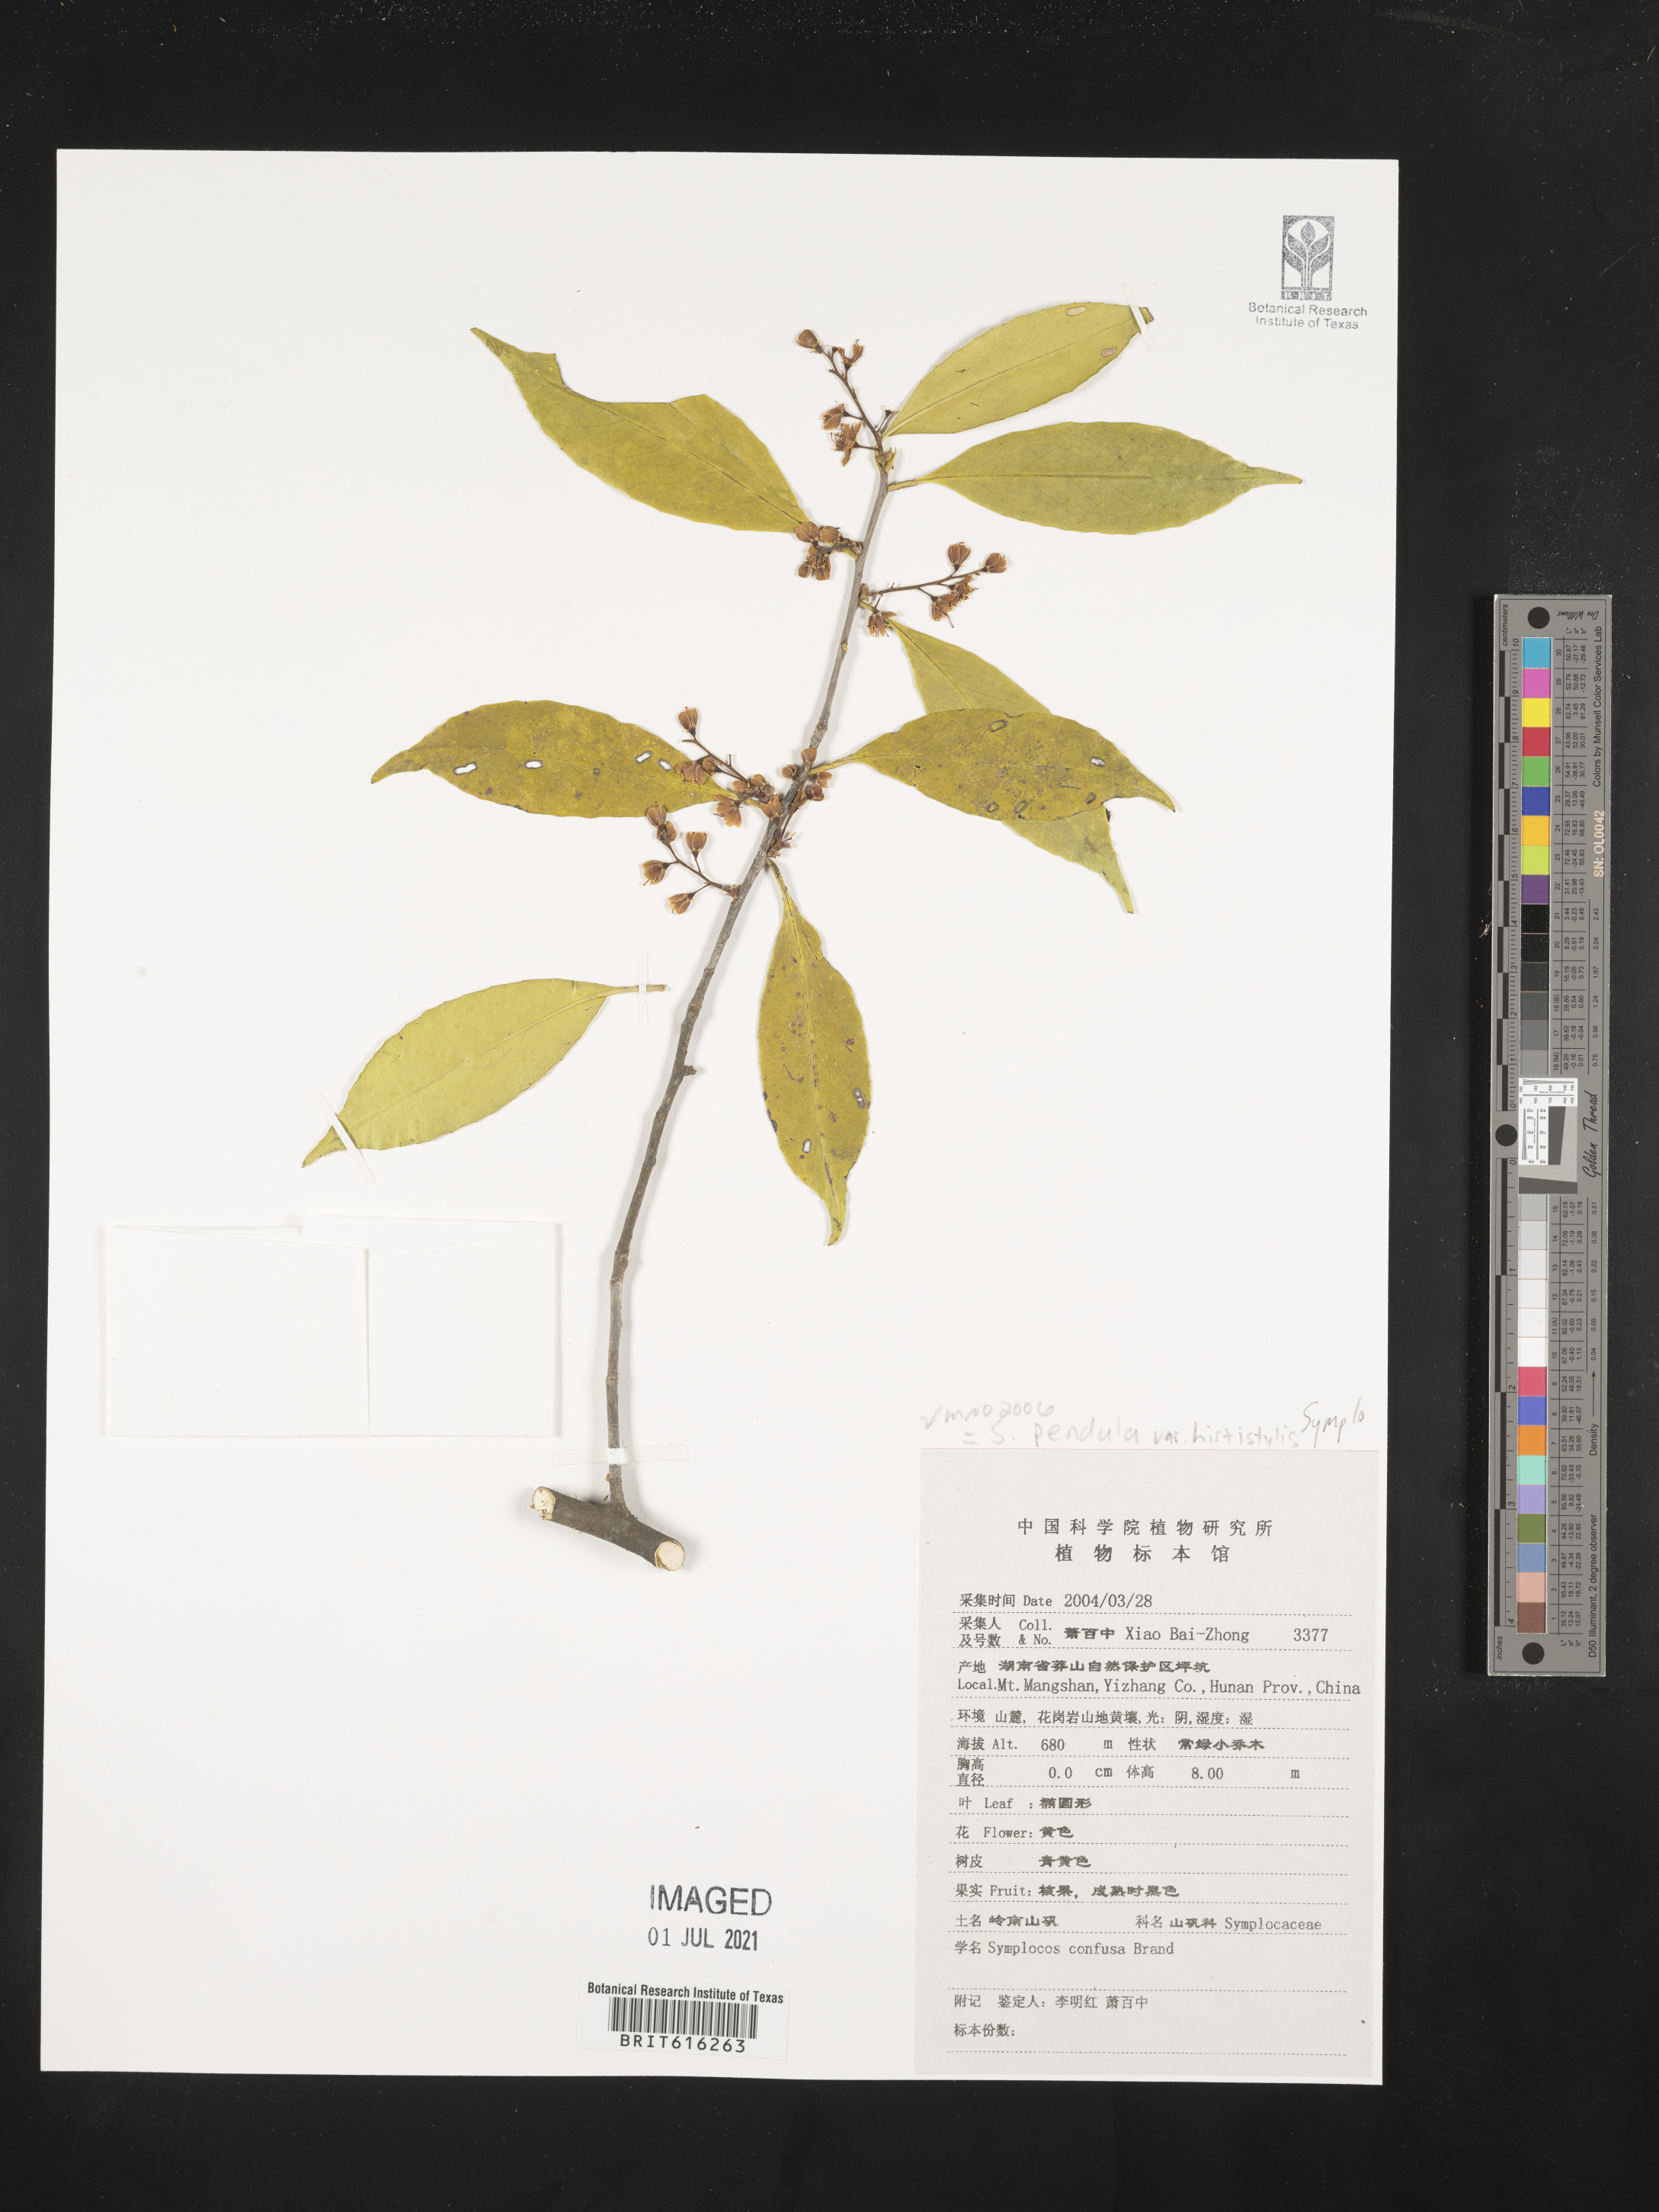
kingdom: Plantae
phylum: Tracheophyta
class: Magnoliopsida
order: Ericales
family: Symplocaceae
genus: Symplocos
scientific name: Symplocos pendula
